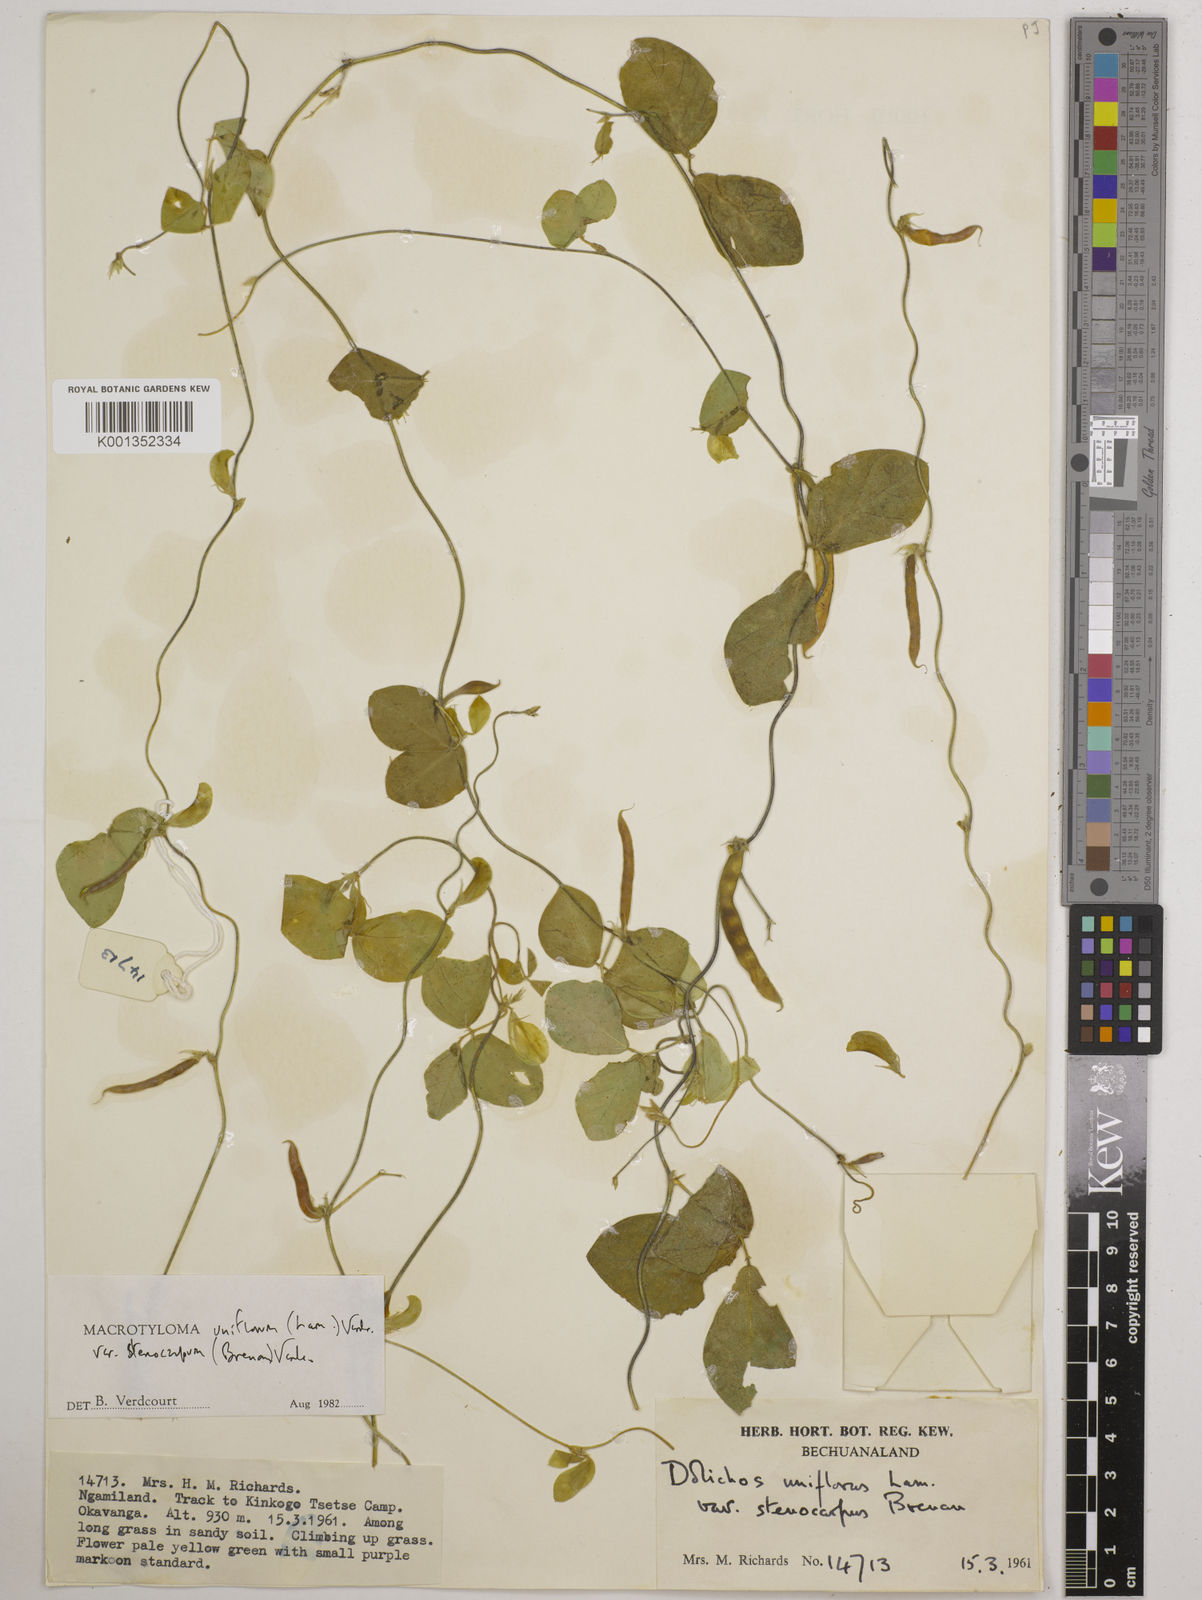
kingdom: Plantae
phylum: Tracheophyta
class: Magnoliopsida
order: Fabales
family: Fabaceae
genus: Macrotyloma
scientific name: Macrotyloma
